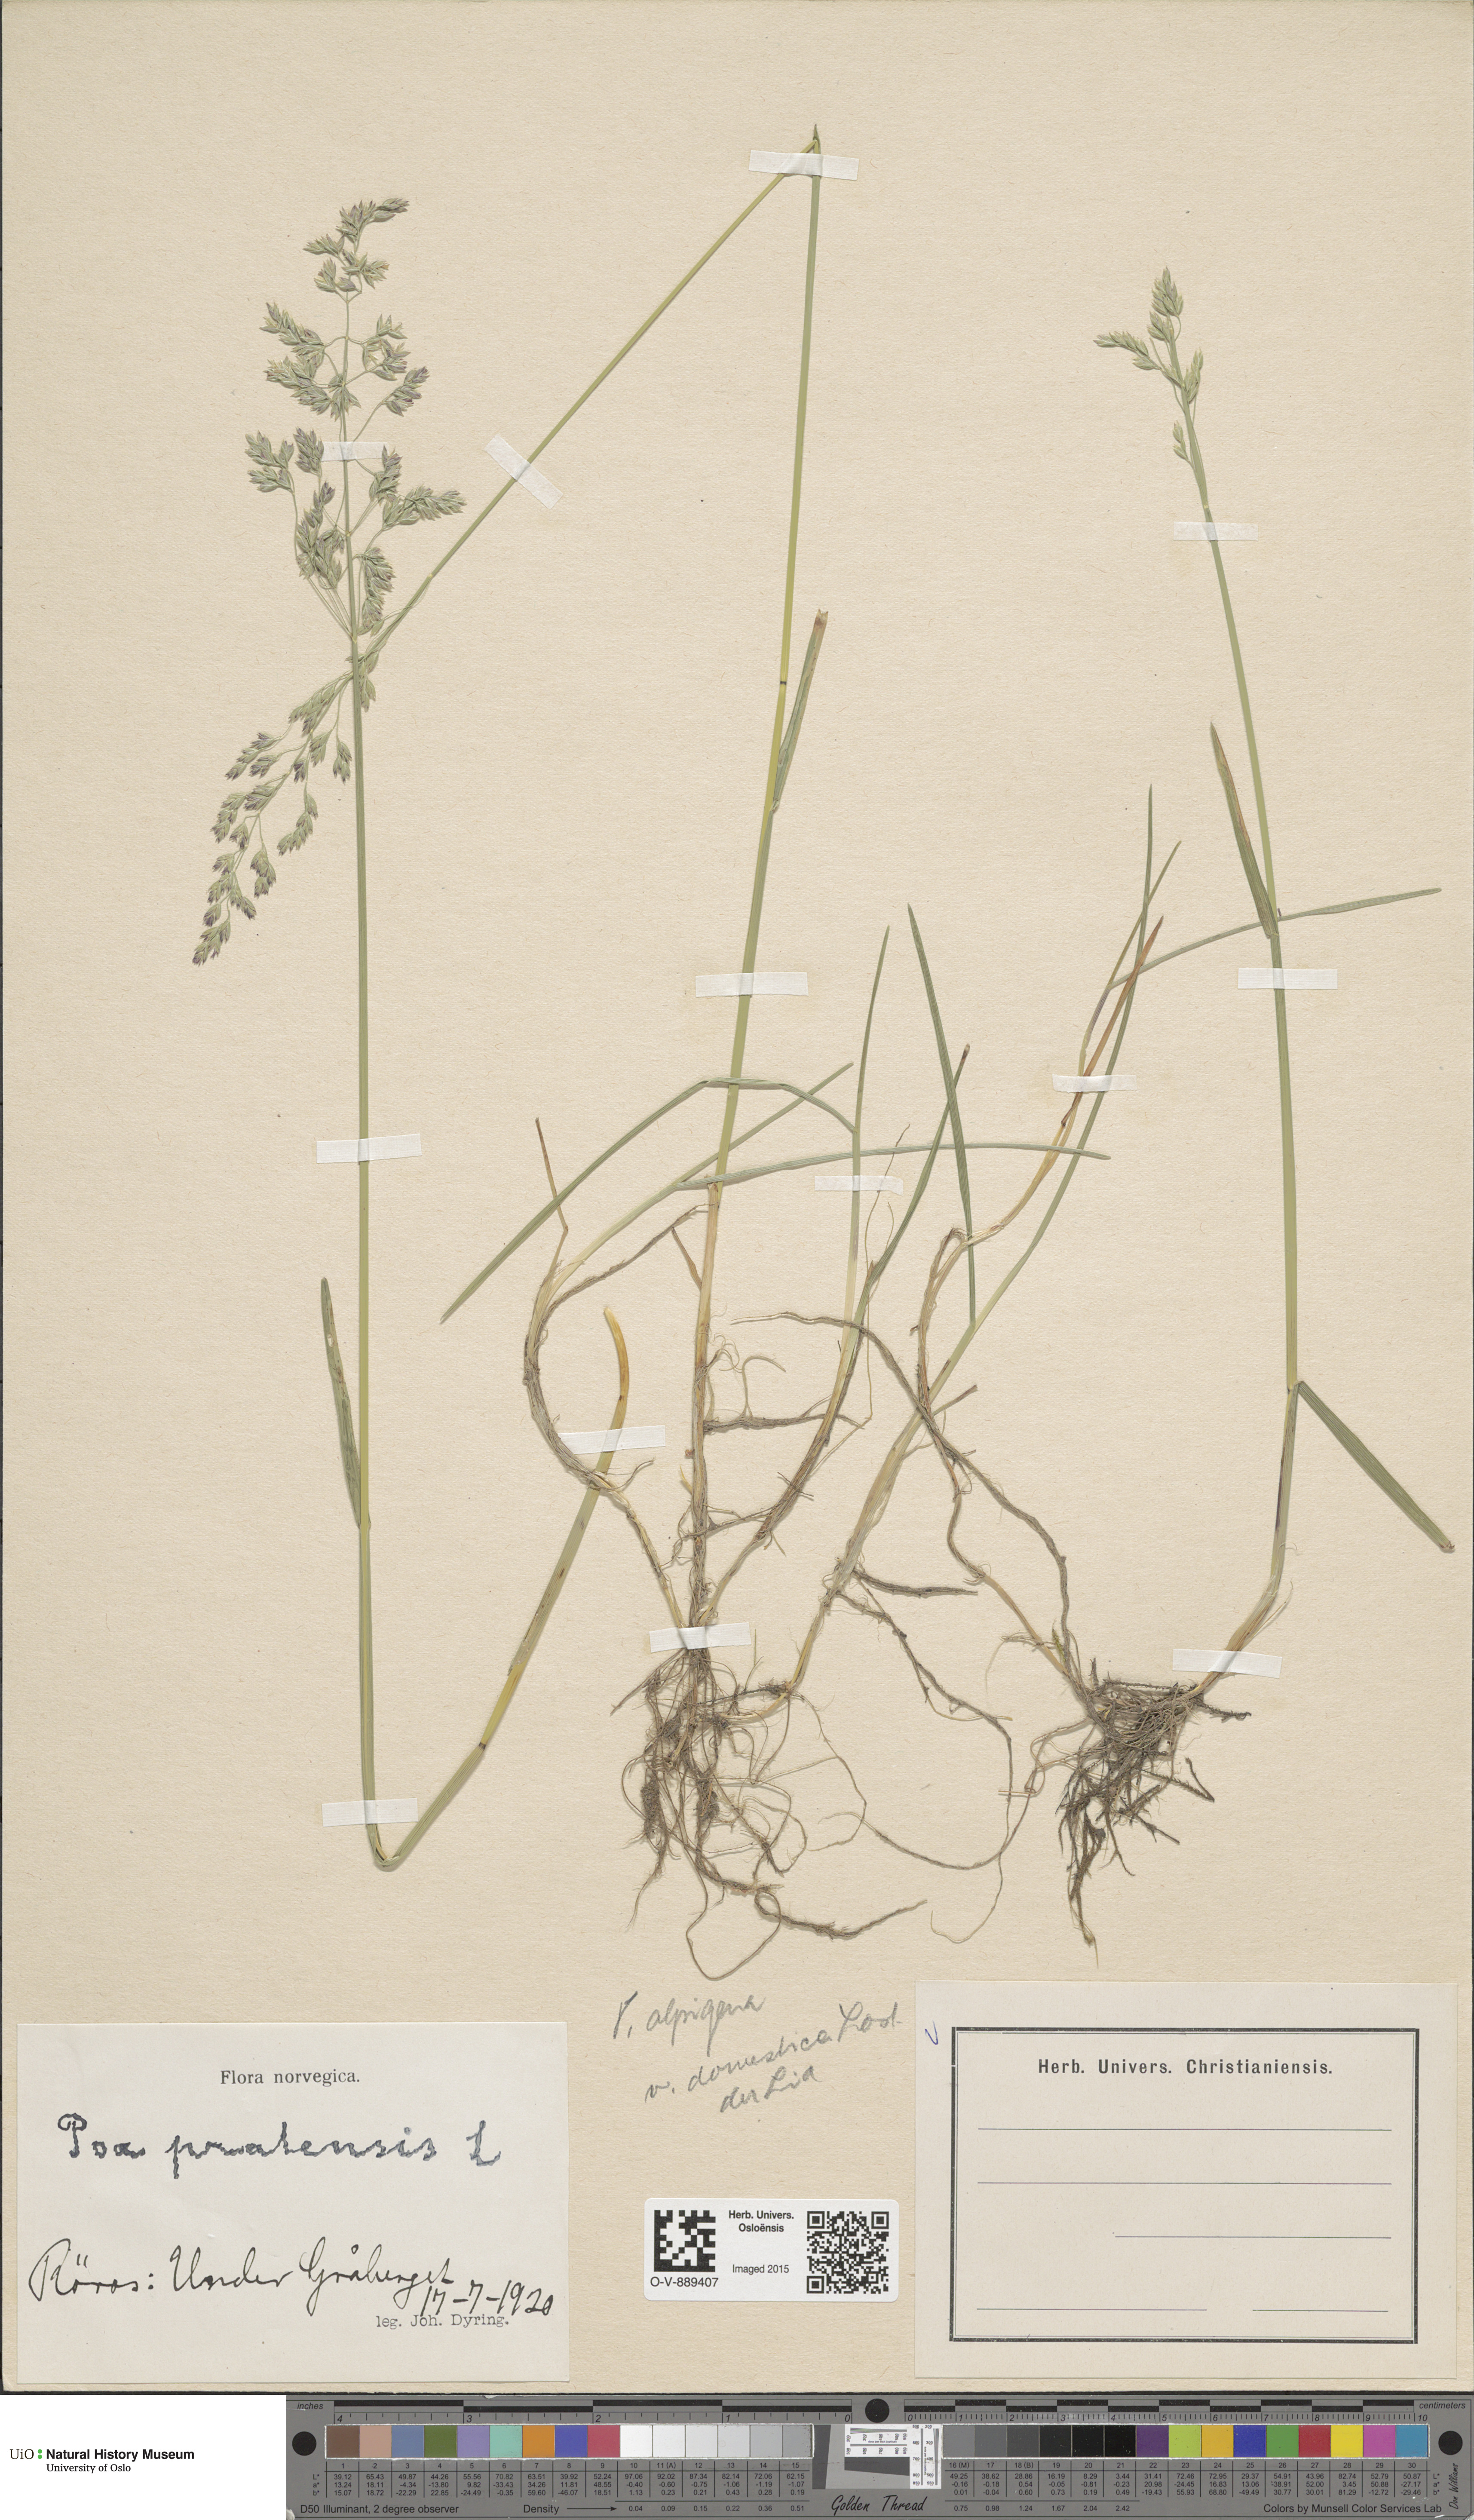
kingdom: Plantae
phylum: Tracheophyta
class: Liliopsida
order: Poales
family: Poaceae
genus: Poa
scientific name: Poa pratensis
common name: Kentucky bluegrass
